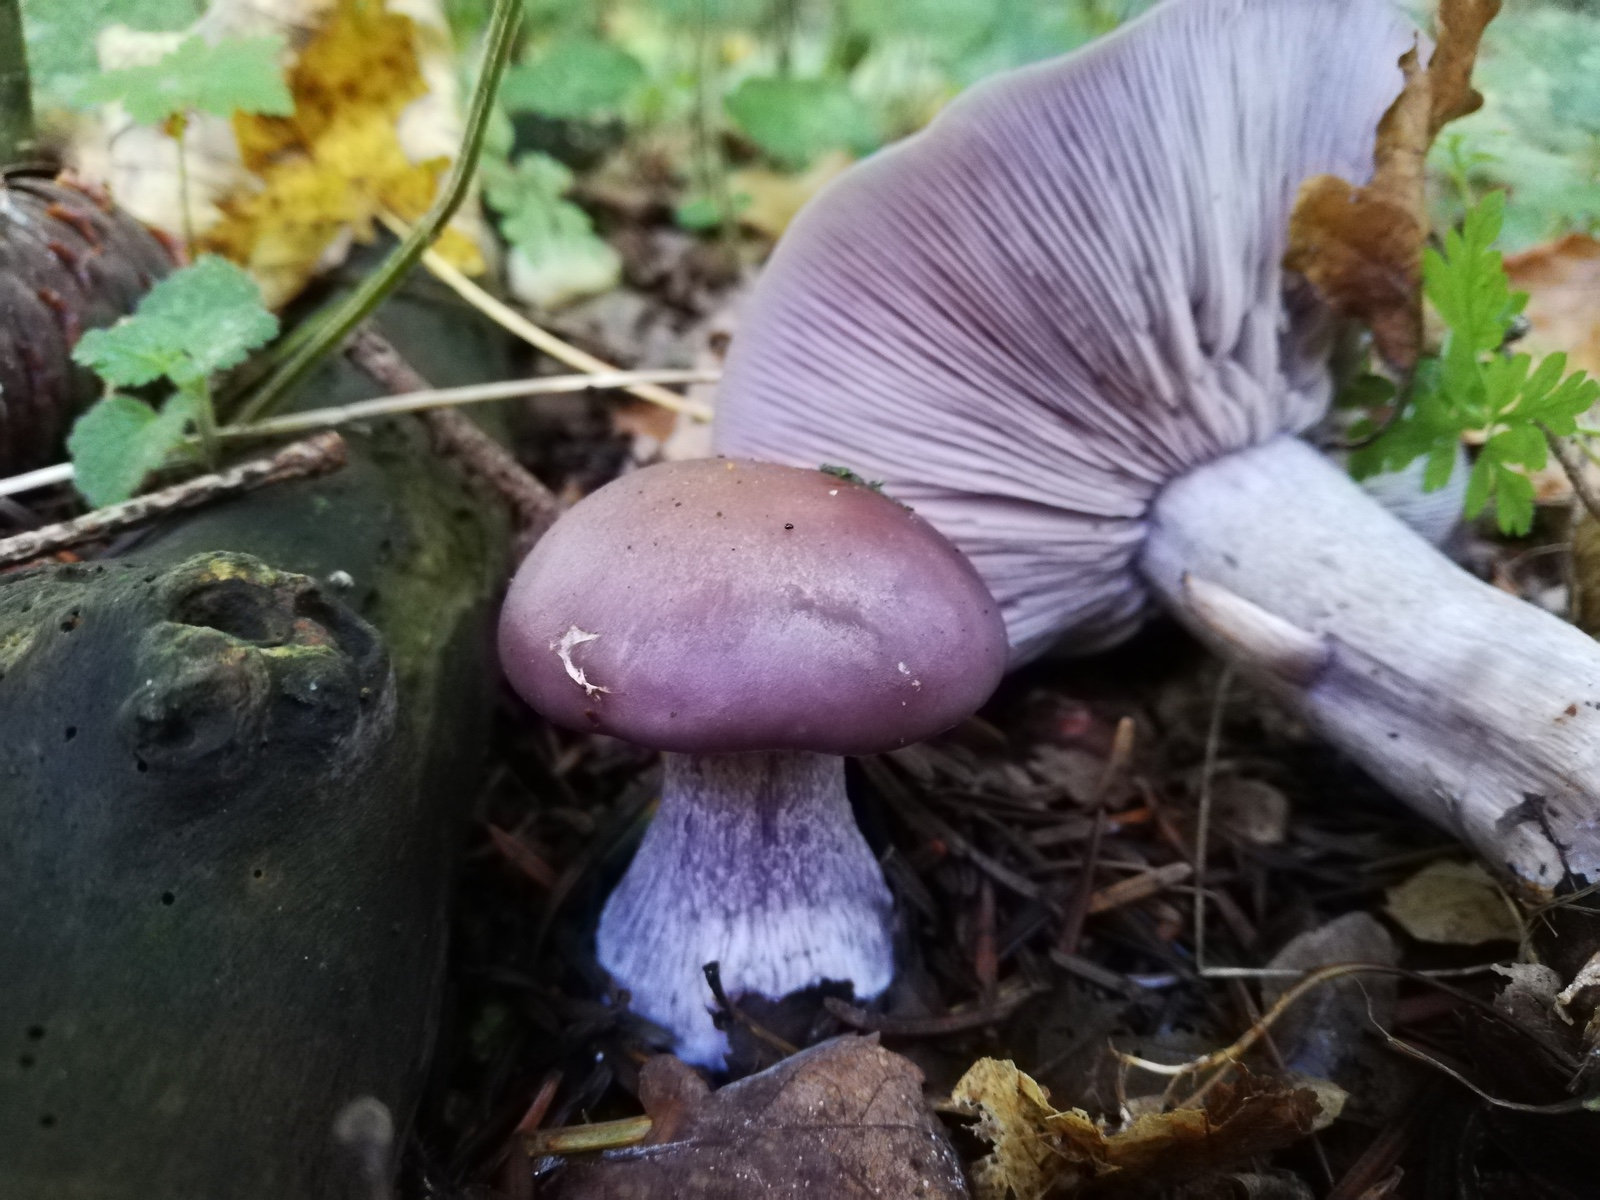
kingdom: Fungi
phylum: Basidiomycota
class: Agaricomycetes
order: Agaricales
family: Tricholomataceae
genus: Lepista
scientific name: Lepista nuda
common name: violet hekseringshat
